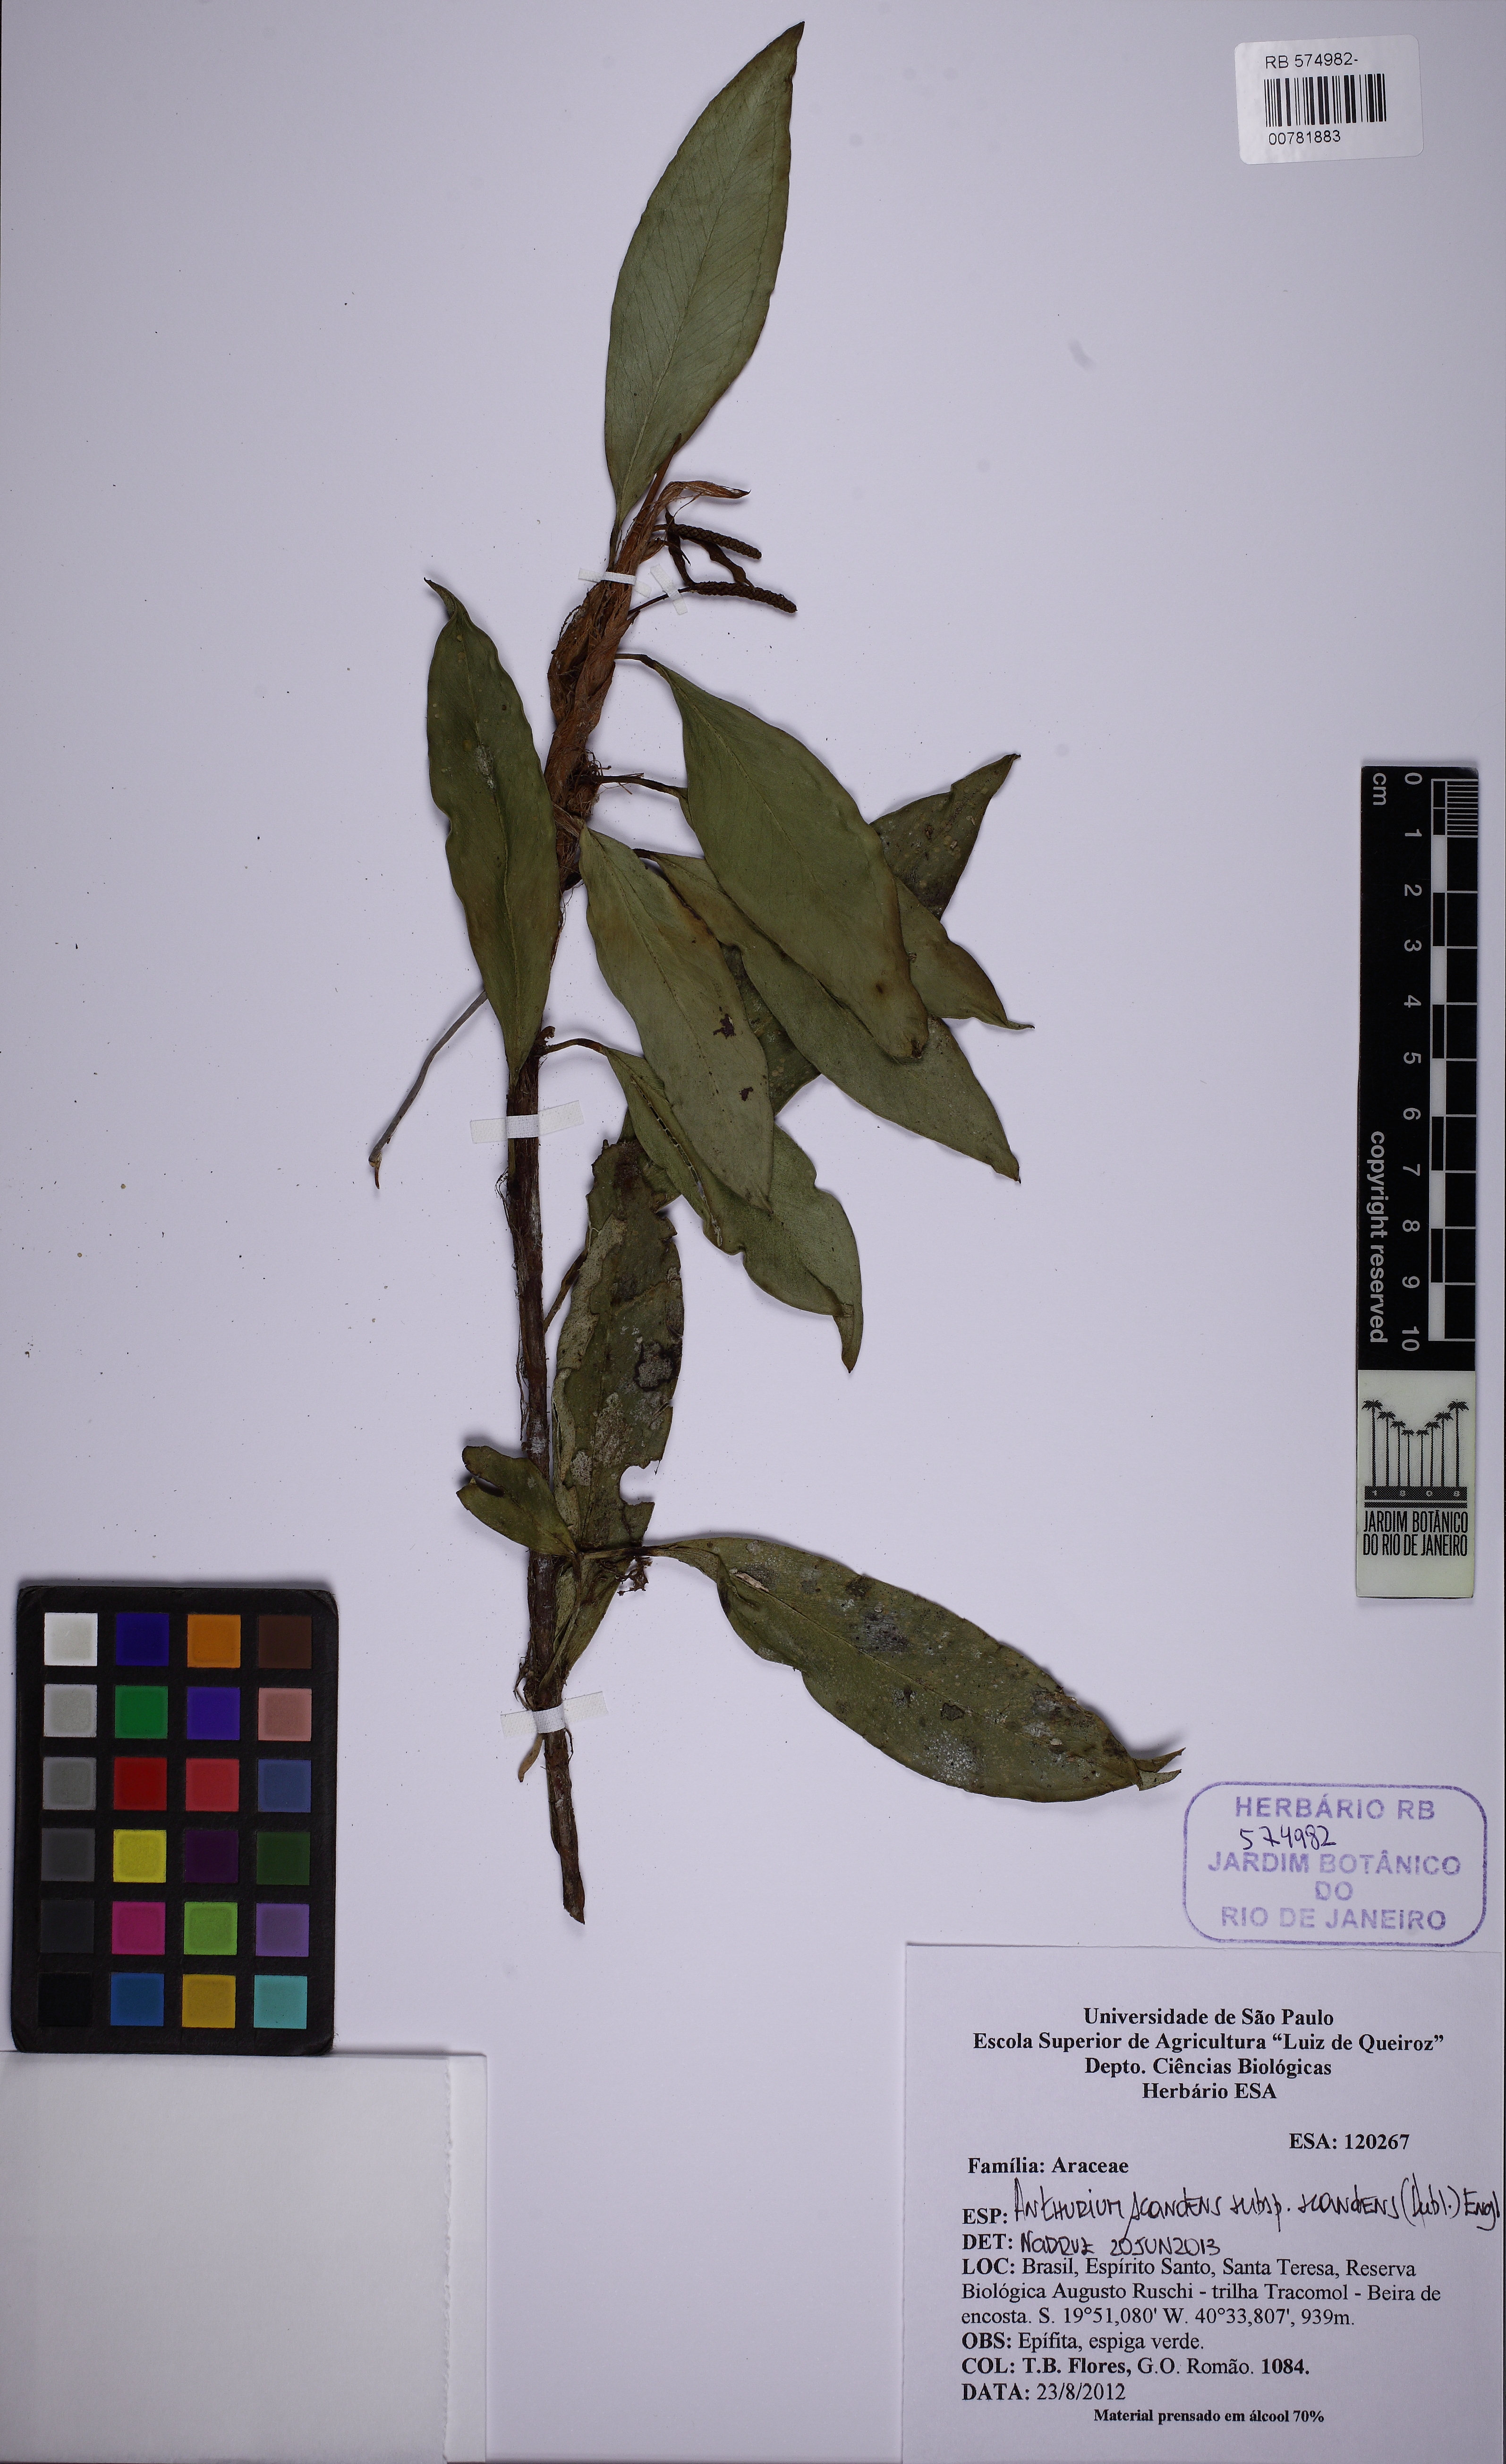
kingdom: Plantae
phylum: Tracheophyta
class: Liliopsida
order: Alismatales
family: Araceae
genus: Anthurium
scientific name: Anthurium scandens
